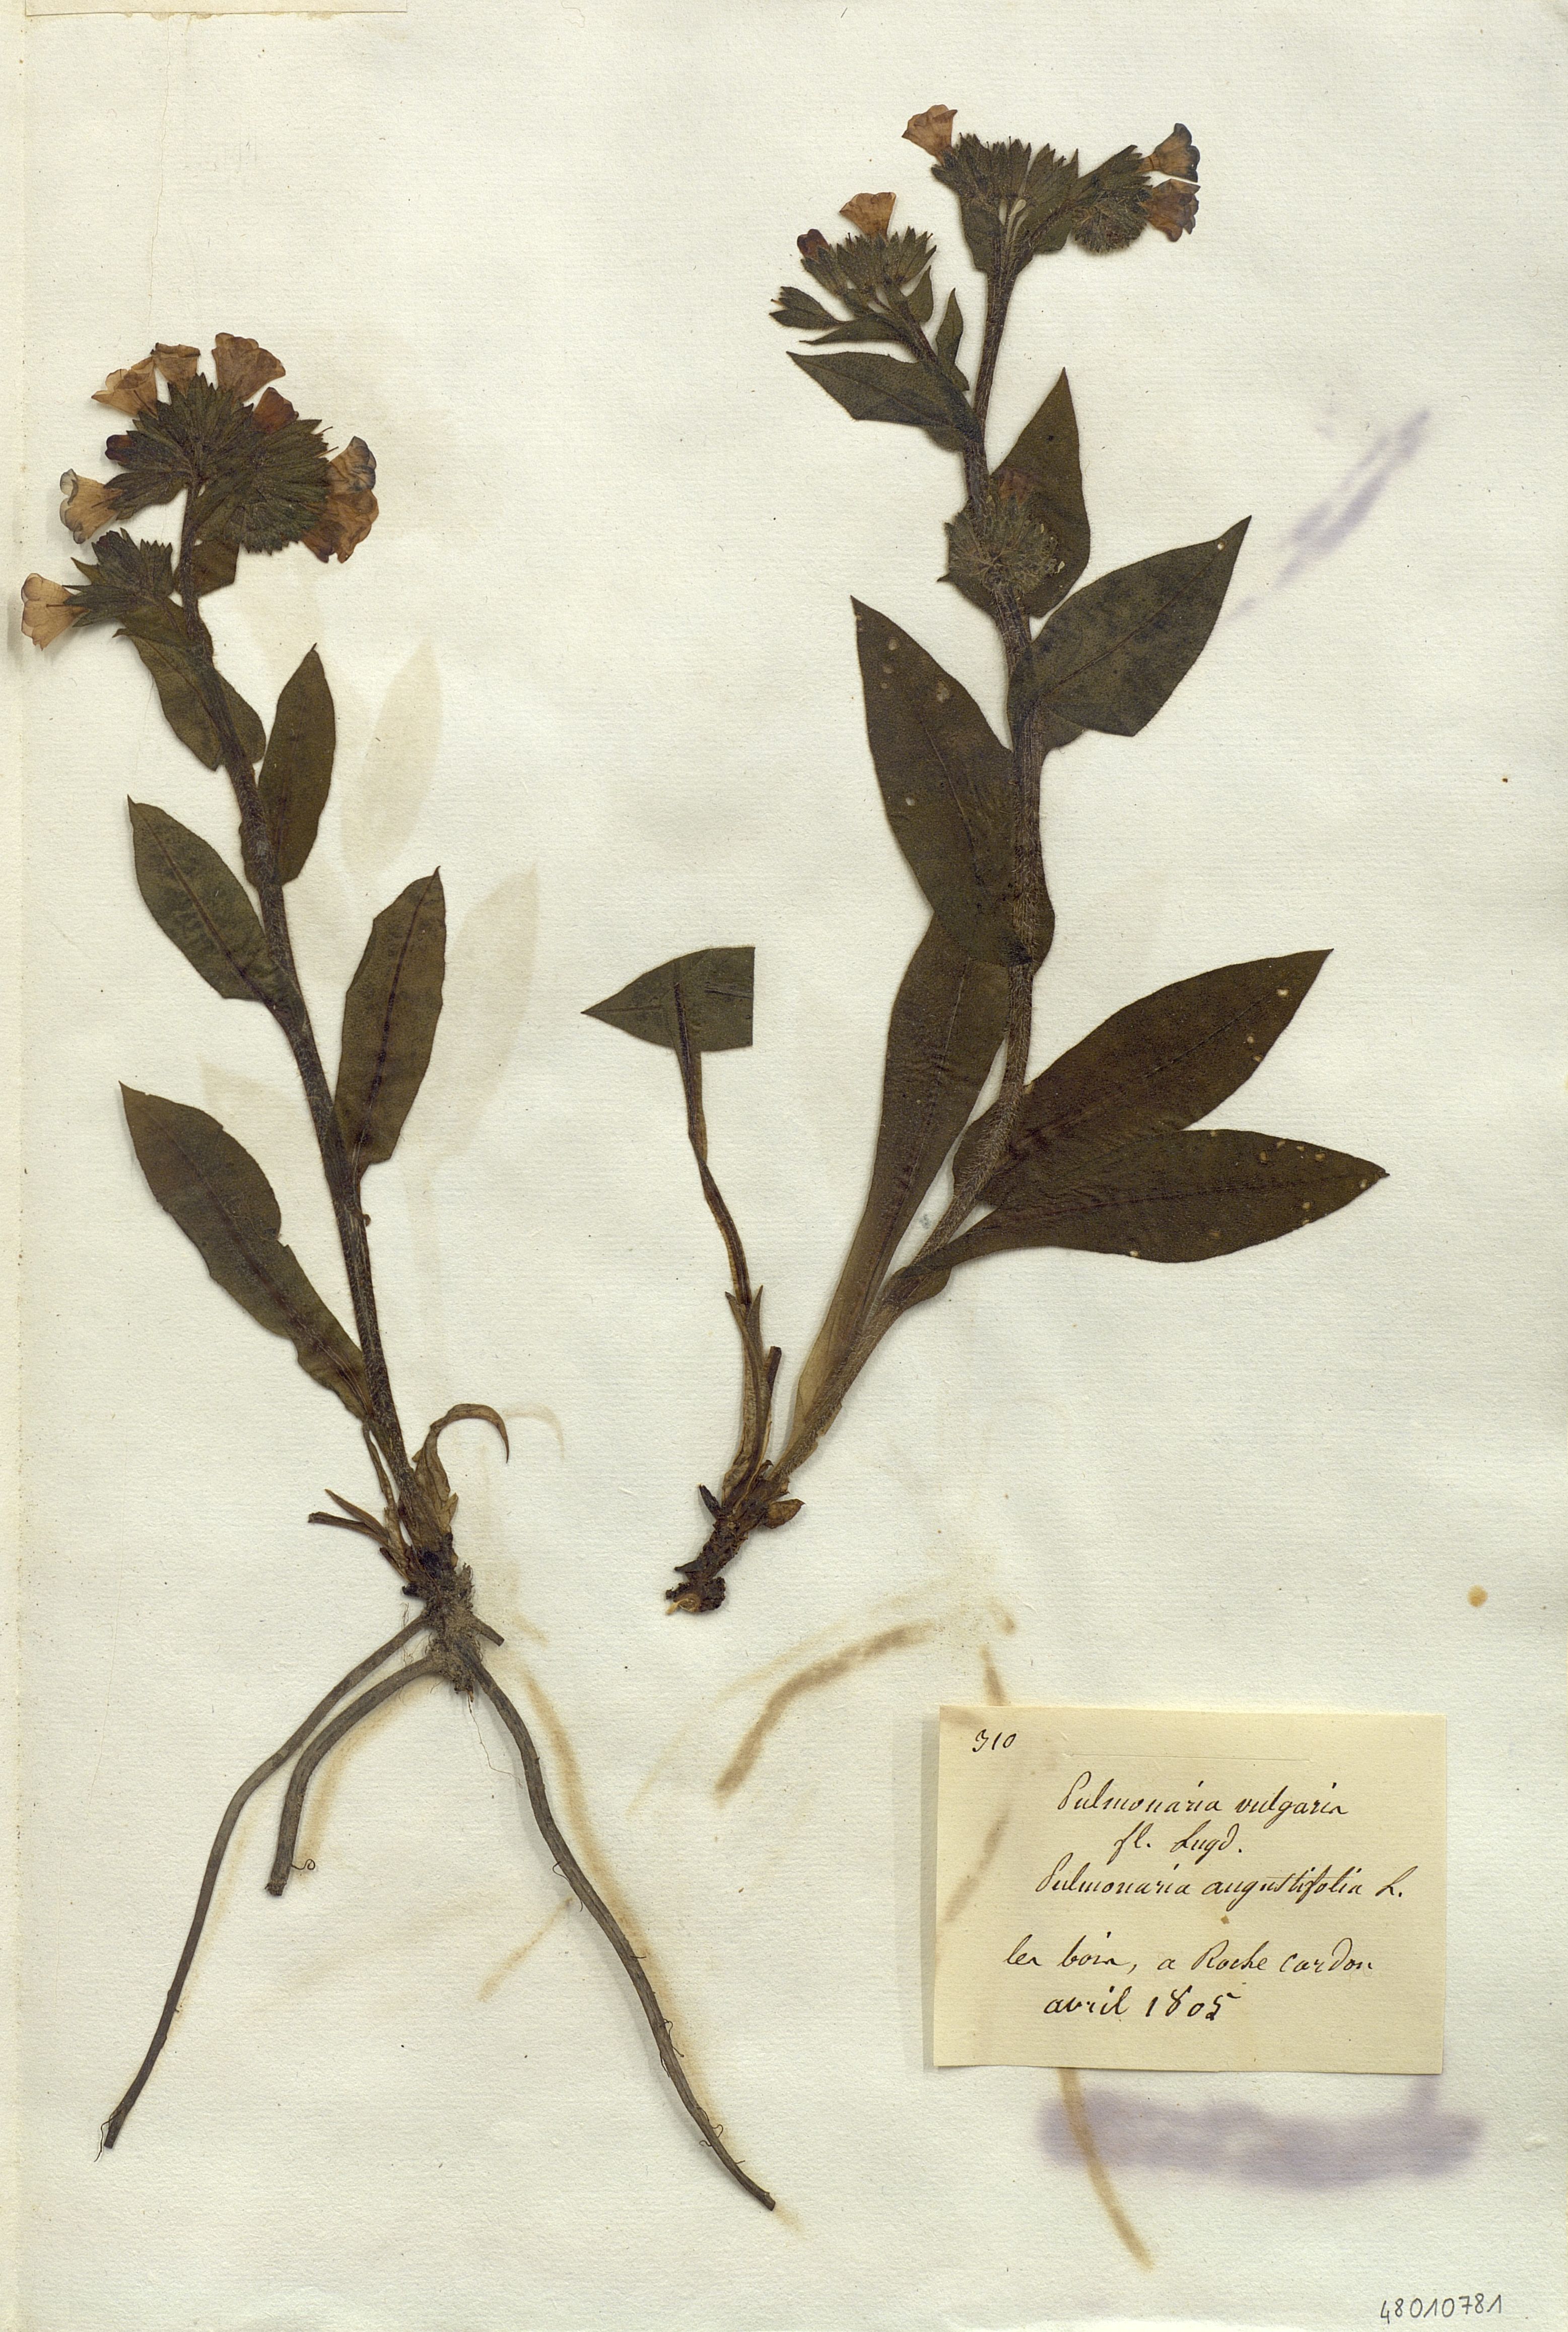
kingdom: Plantae
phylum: Tracheophyta
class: Magnoliopsida
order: Boraginales
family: Boraginaceae
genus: Pulmonaria
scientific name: Pulmonaria
